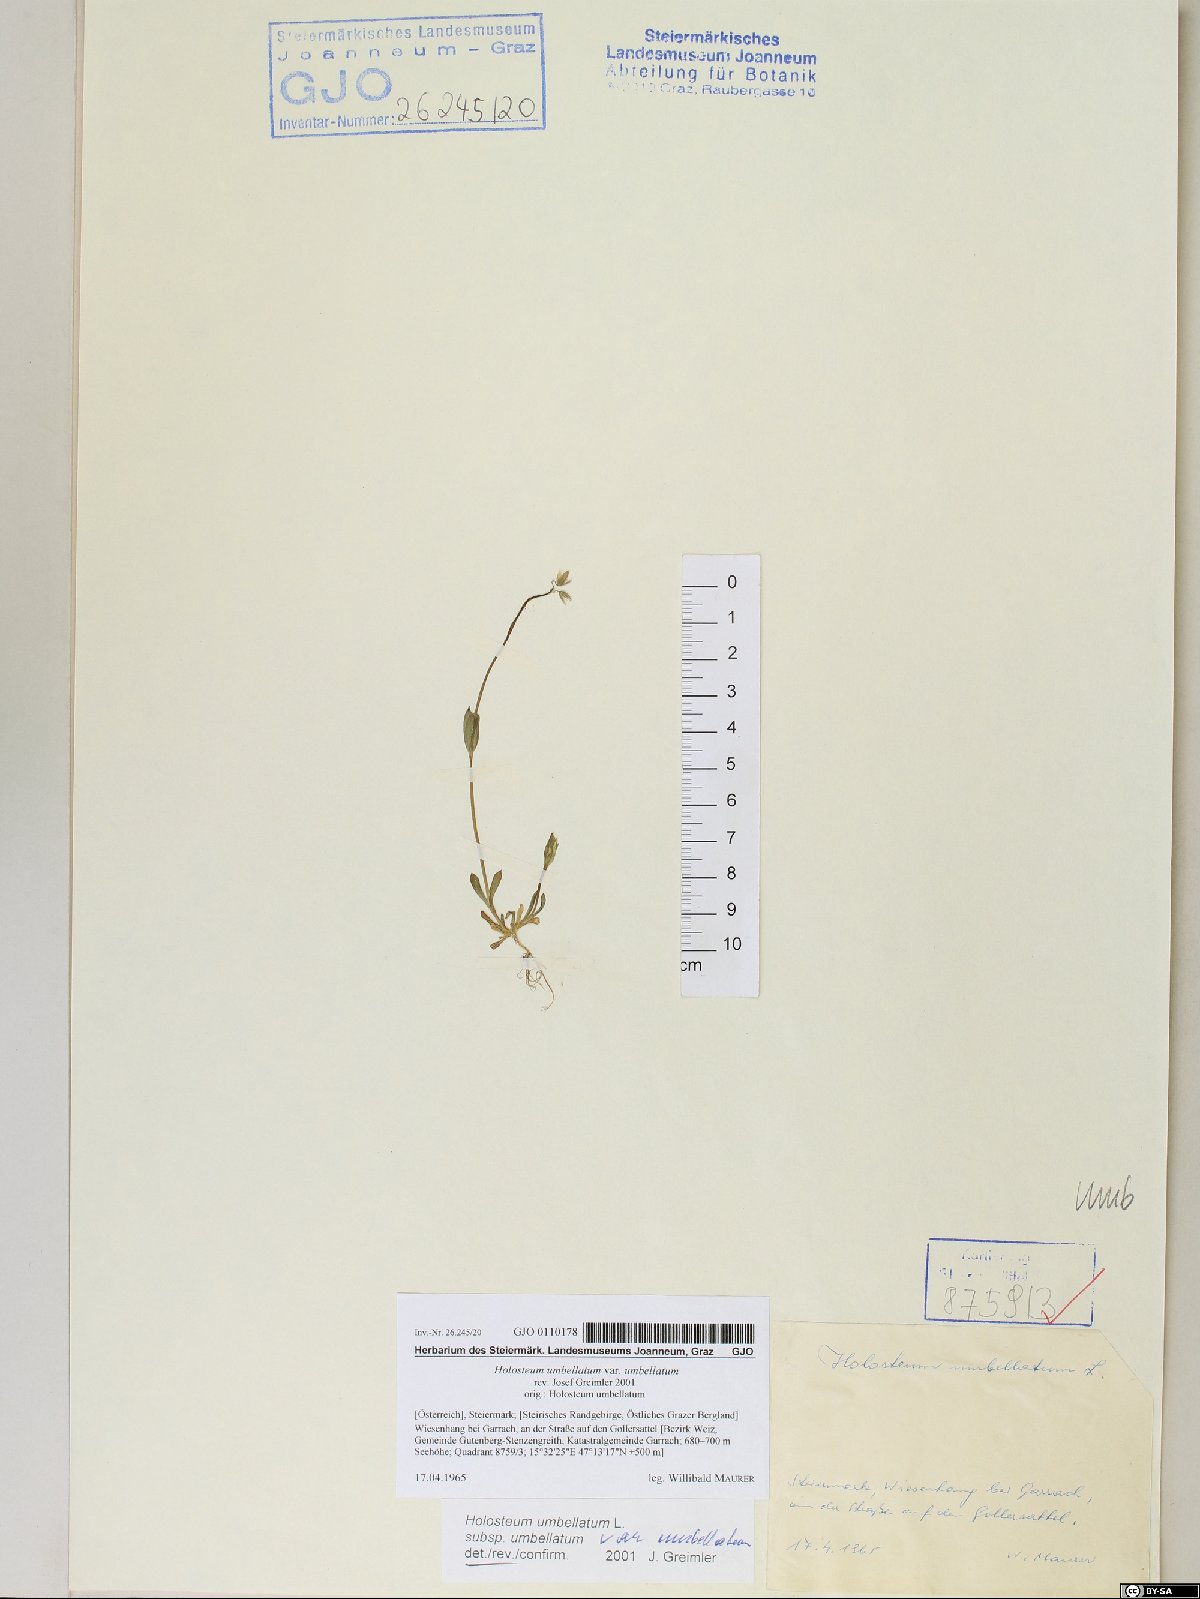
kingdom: Plantae
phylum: Tracheophyta
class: Magnoliopsida
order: Caryophyllales
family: Caryophyllaceae
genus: Holosteum
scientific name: Holosteum umbellatum
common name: Jagged chickweed
